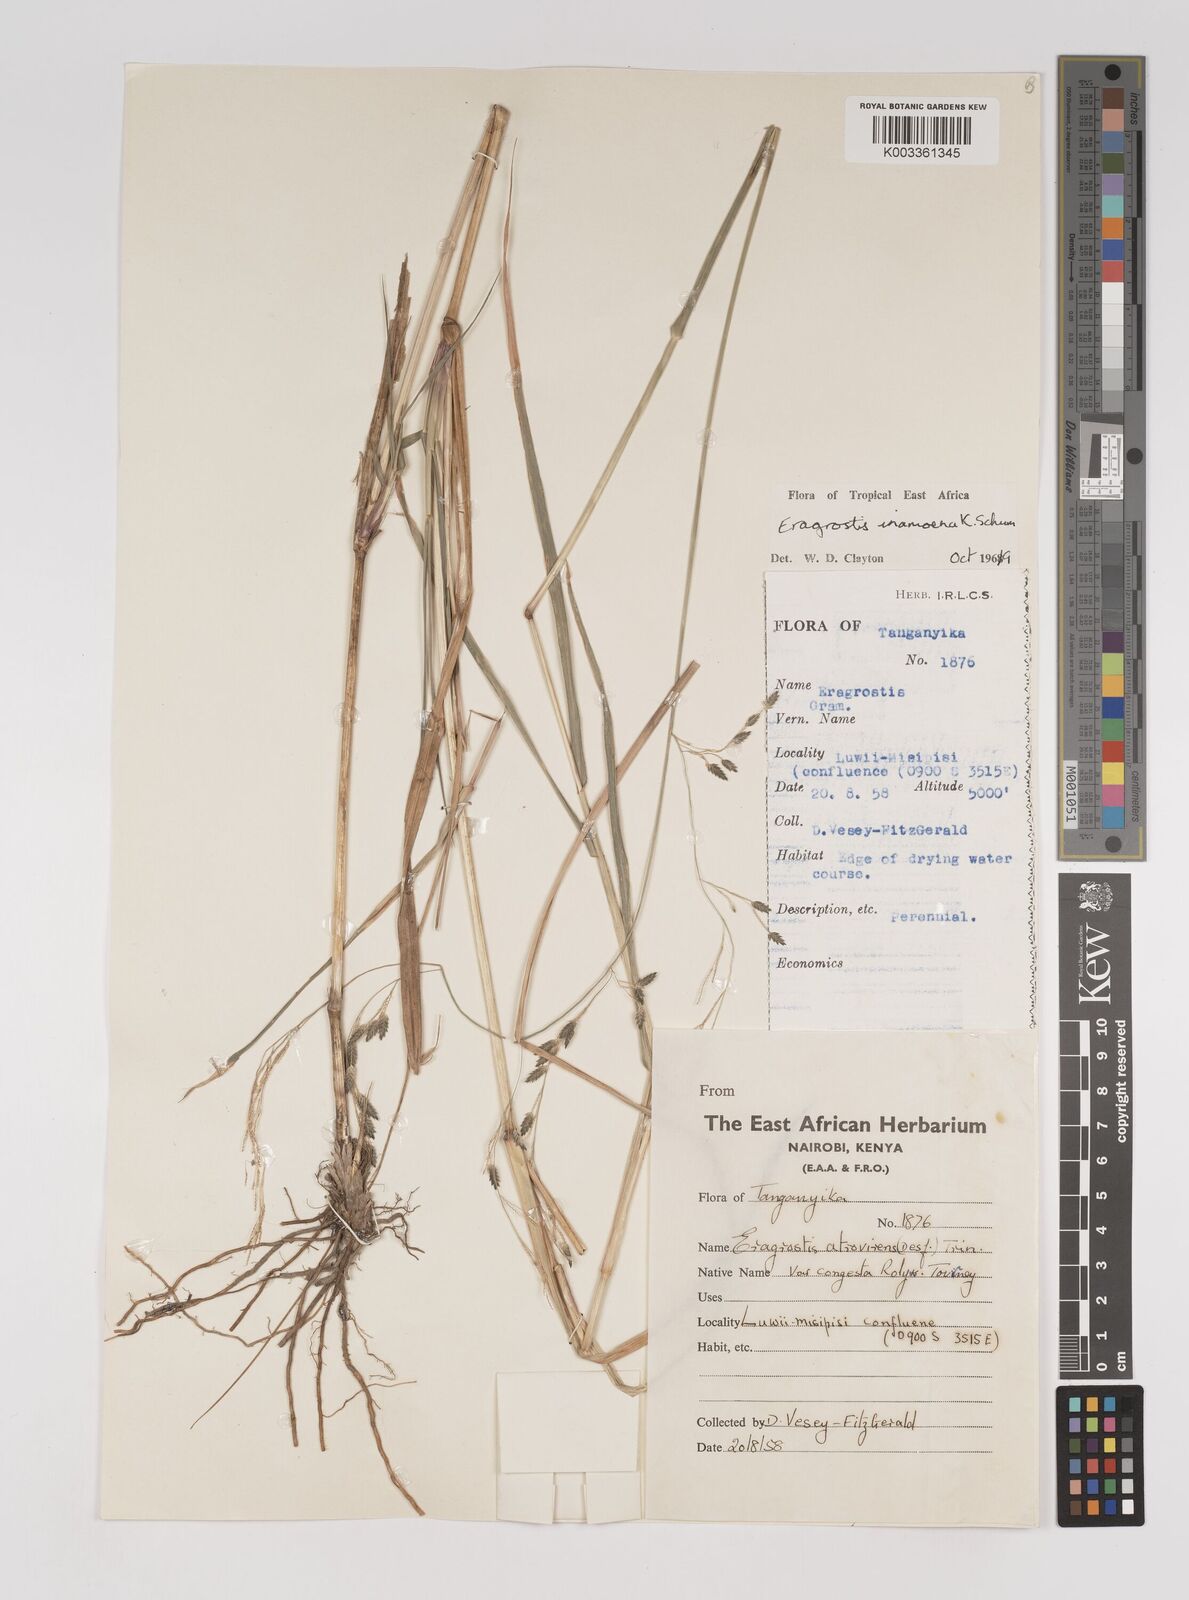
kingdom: Plantae
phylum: Tracheophyta
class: Liliopsida
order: Poales
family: Poaceae
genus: Eragrostis
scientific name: Eragrostis inamoena
